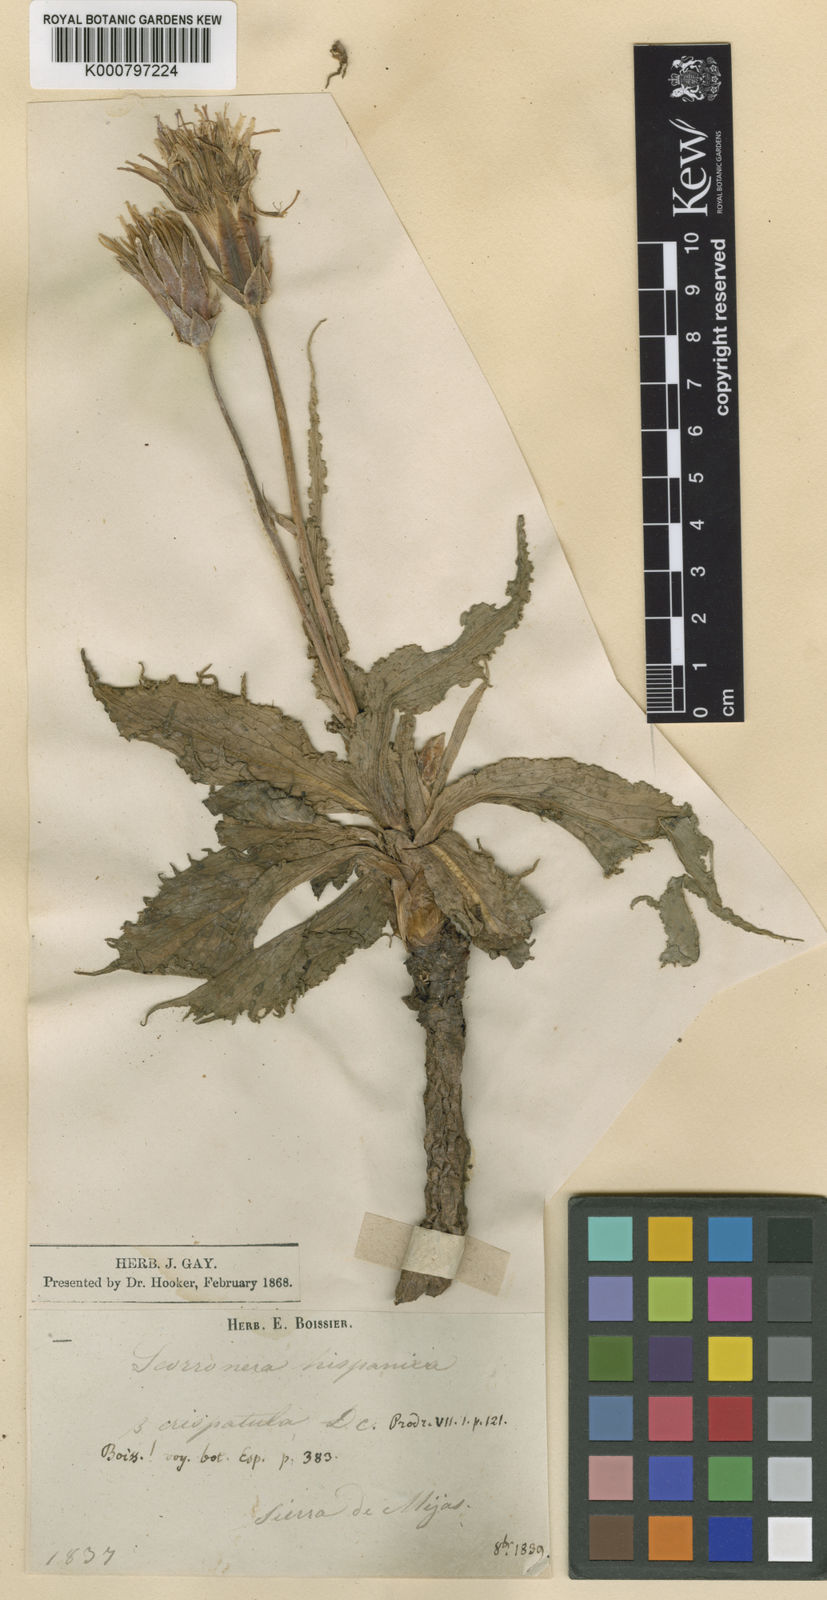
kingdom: Plantae
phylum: Tracheophyta
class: Magnoliopsida
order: Asterales
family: Asteraceae
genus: Pseudopodospermum
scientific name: Pseudopodospermum crispatulum
